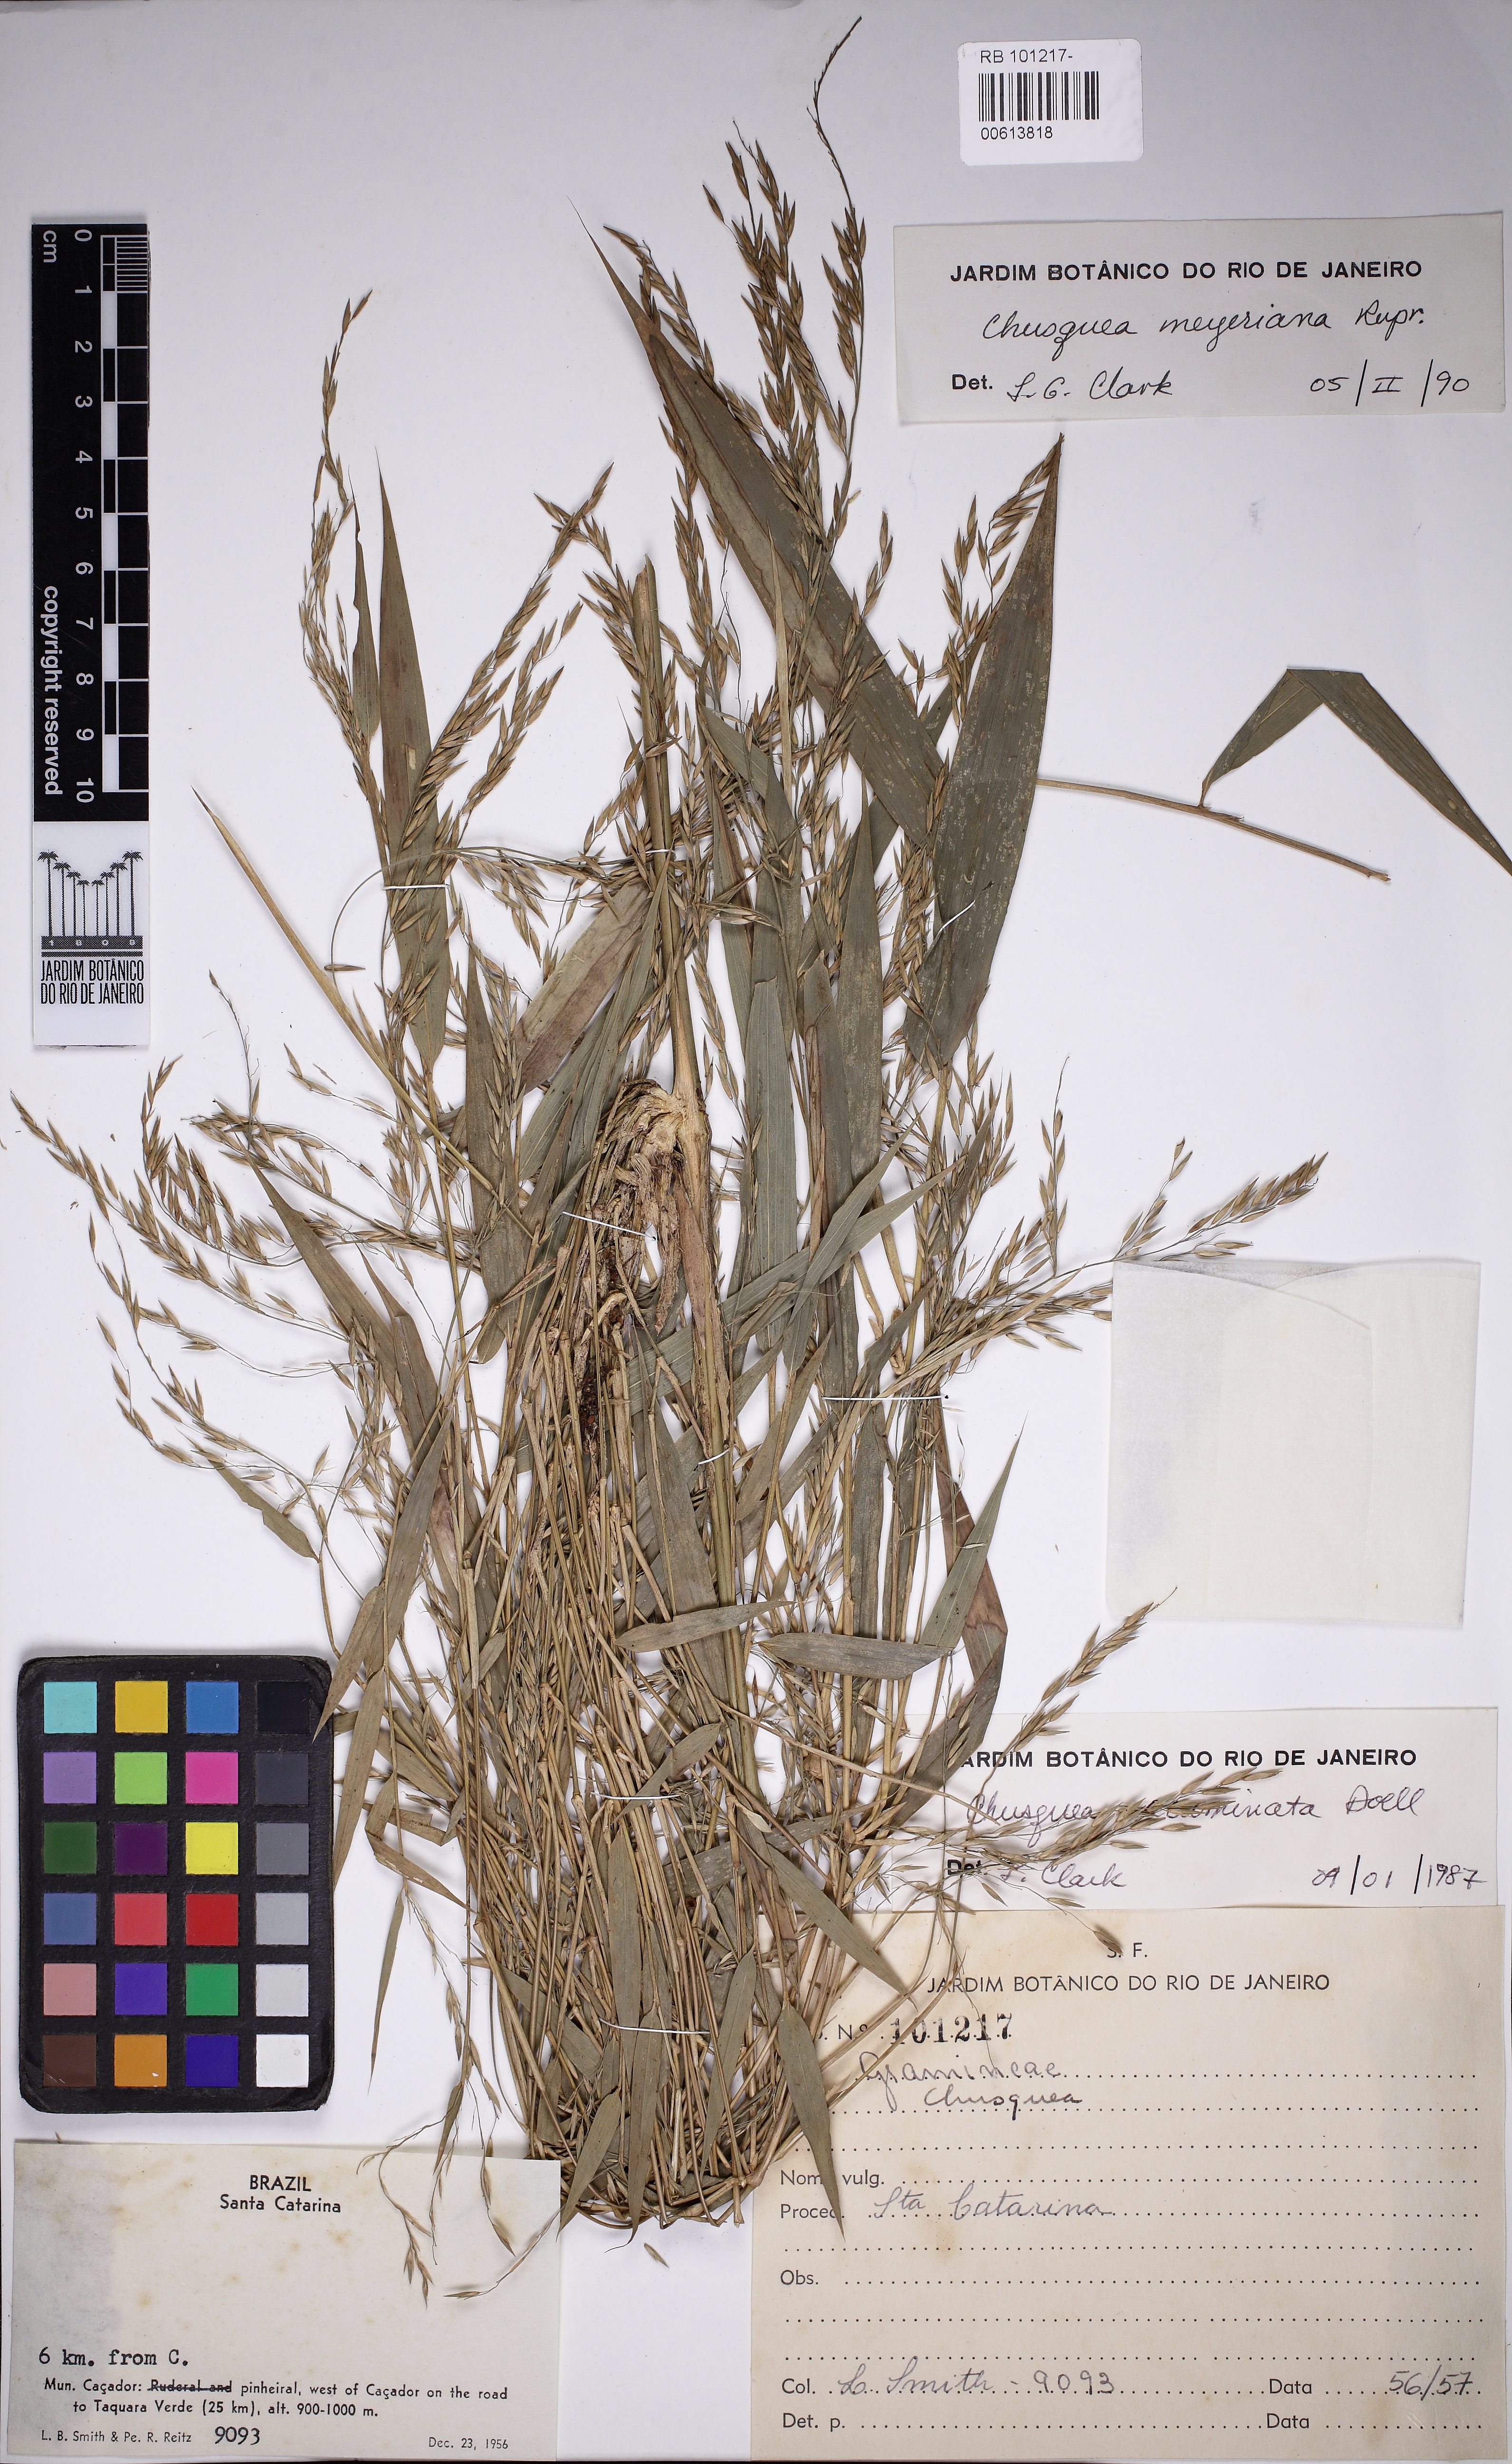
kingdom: Plantae
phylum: Tracheophyta
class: Liliopsida
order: Poales
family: Poaceae
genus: Chusquea
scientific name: Chusquea meyeriana
